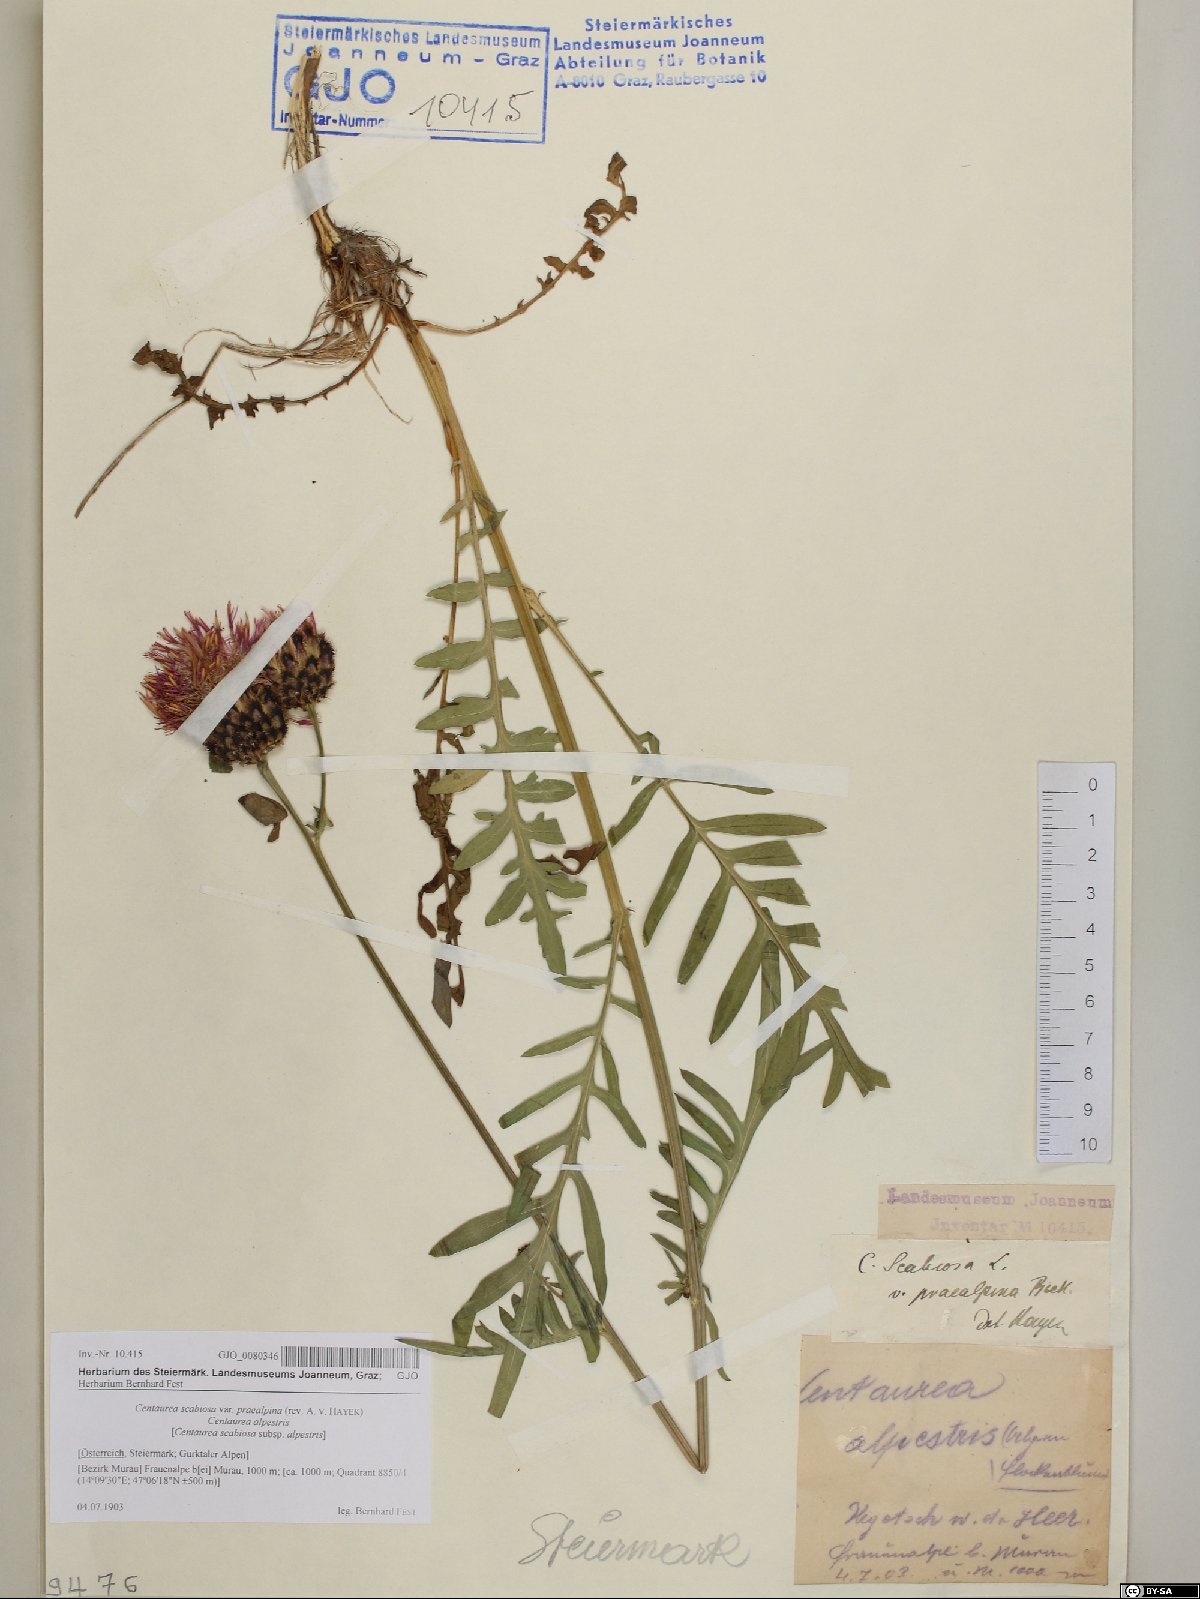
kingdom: Plantae
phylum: Tracheophyta
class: Magnoliopsida
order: Asterales
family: Asteraceae
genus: Centaurea
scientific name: Centaurea scabiosa
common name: Greater knapweed
